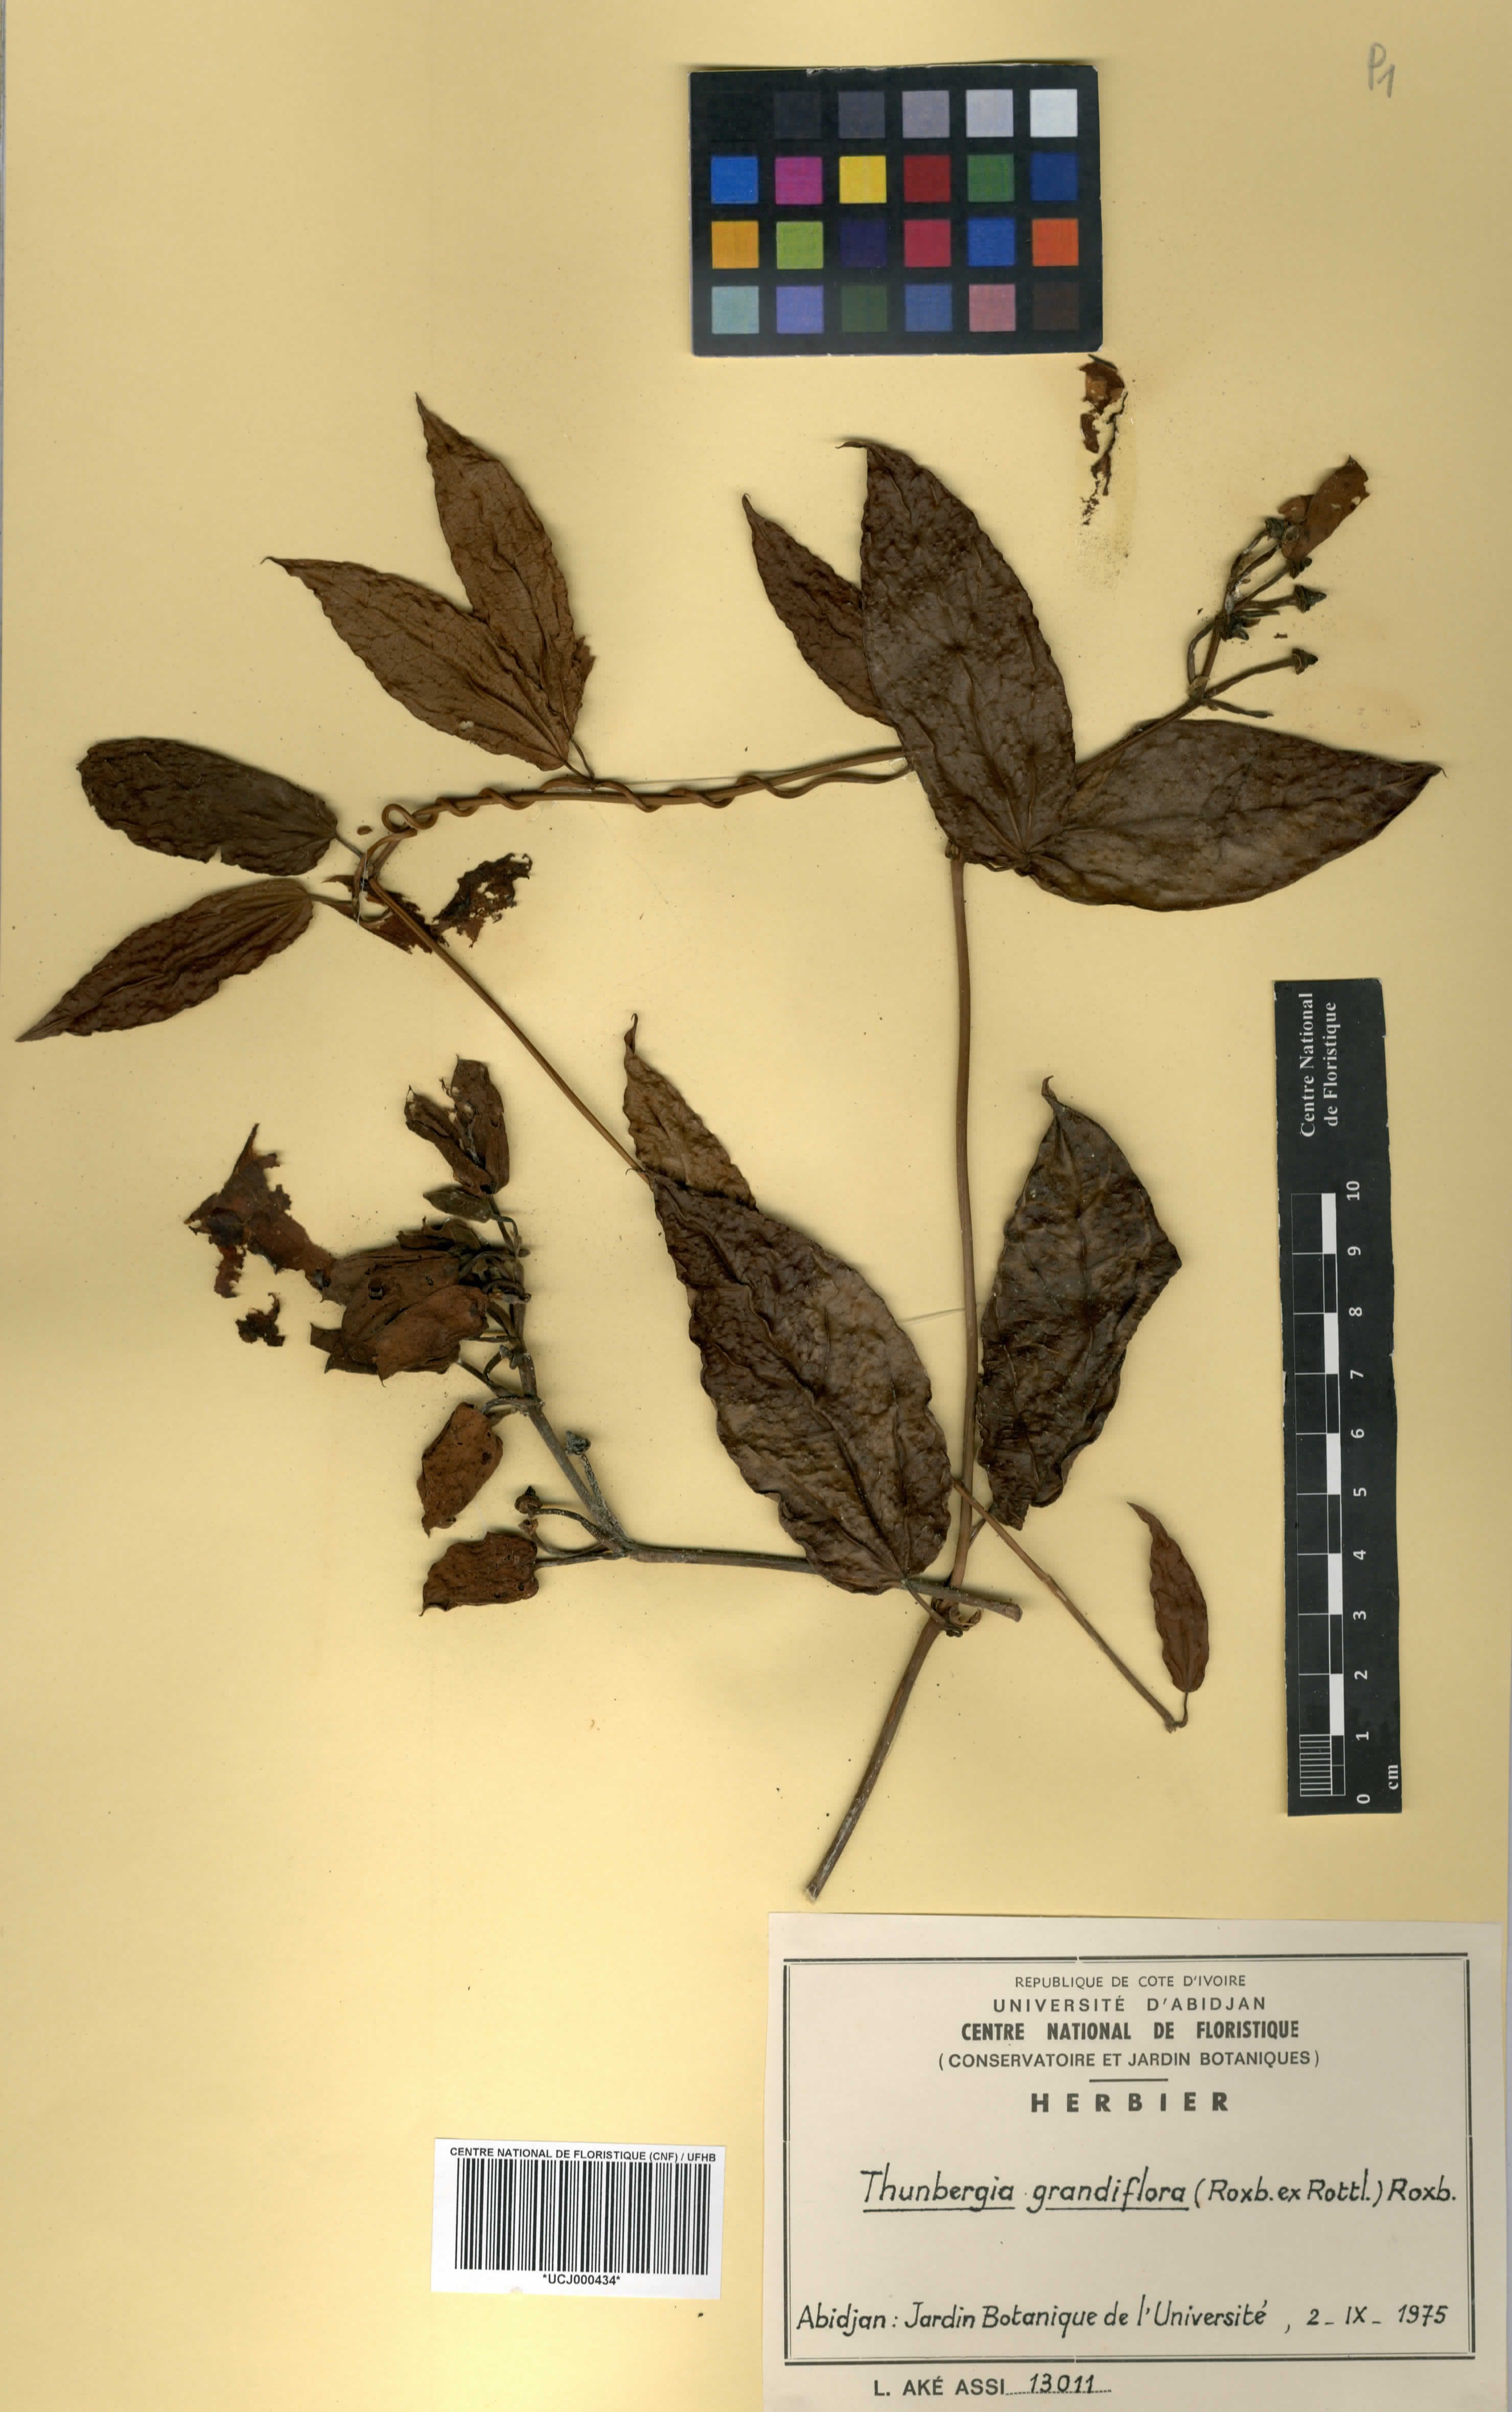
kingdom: Plantae
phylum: Tracheophyta
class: Magnoliopsida
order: Lamiales
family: Acanthaceae
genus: Thunbergia
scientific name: Thunbergia grandiflora
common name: Bengal trumpet
